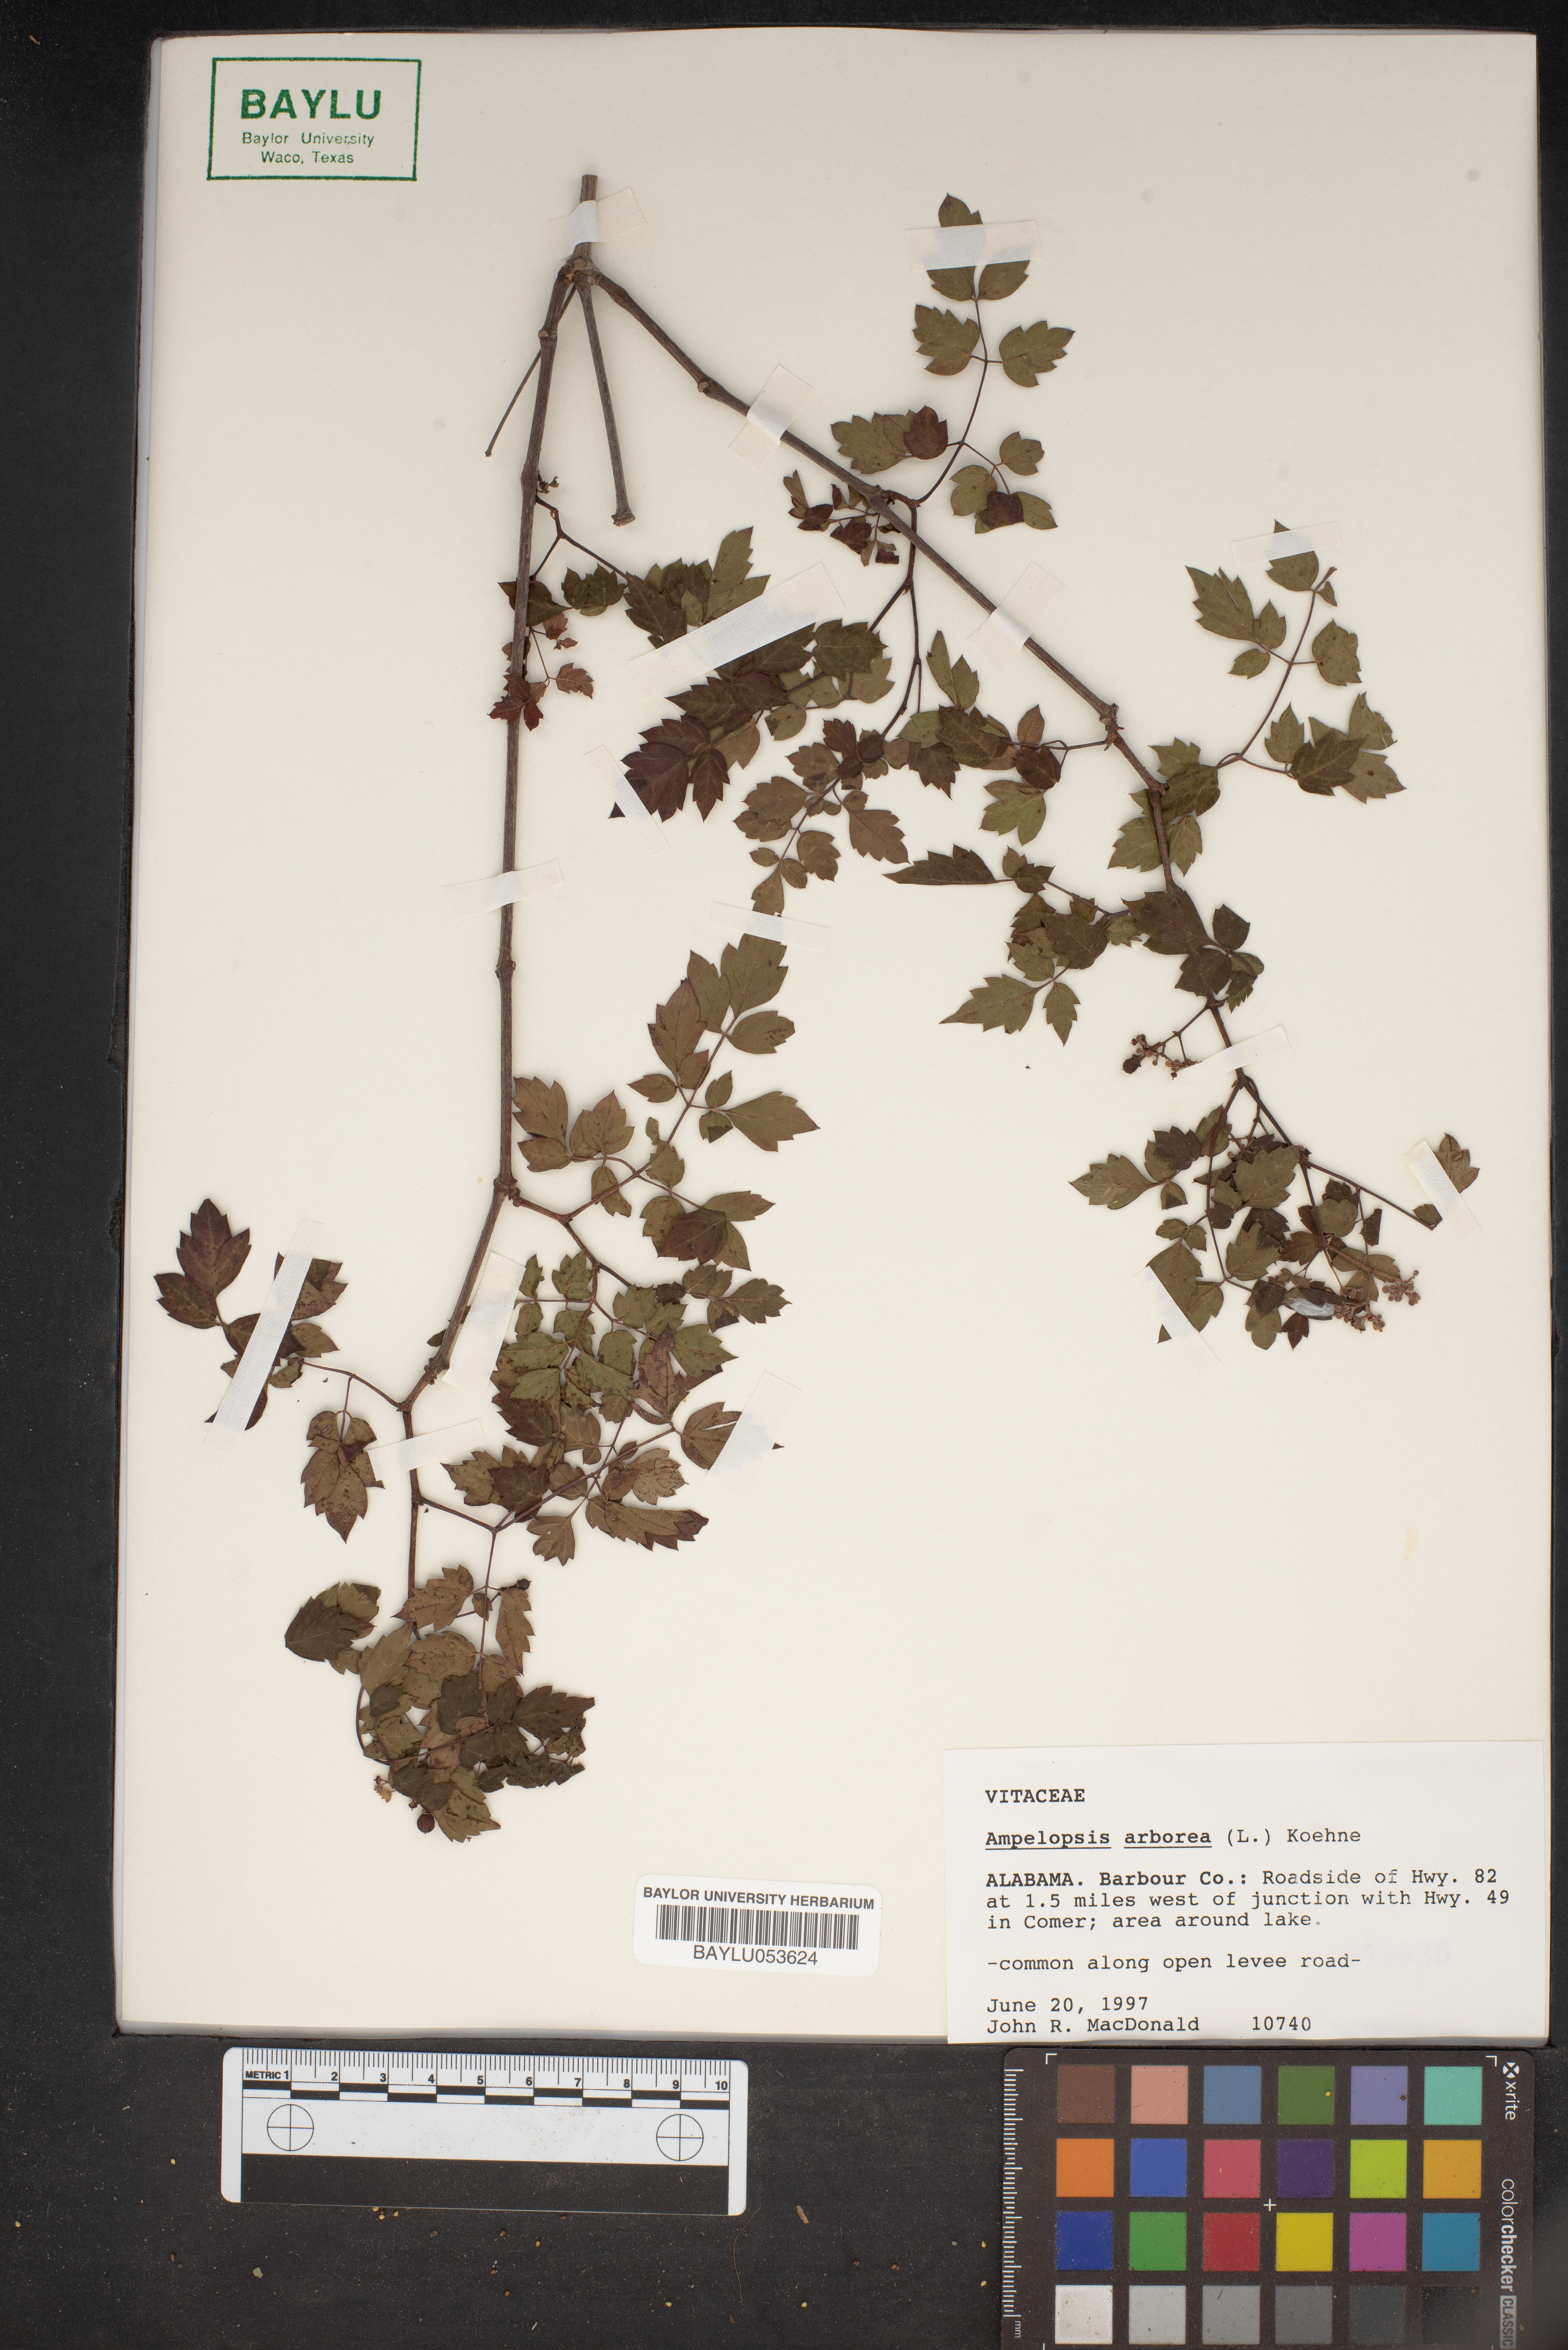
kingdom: Plantae
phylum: Tracheophyta
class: Magnoliopsida
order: Vitales
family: Vitaceae
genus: Nekemias
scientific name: Nekemias arborea
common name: Peppervine
